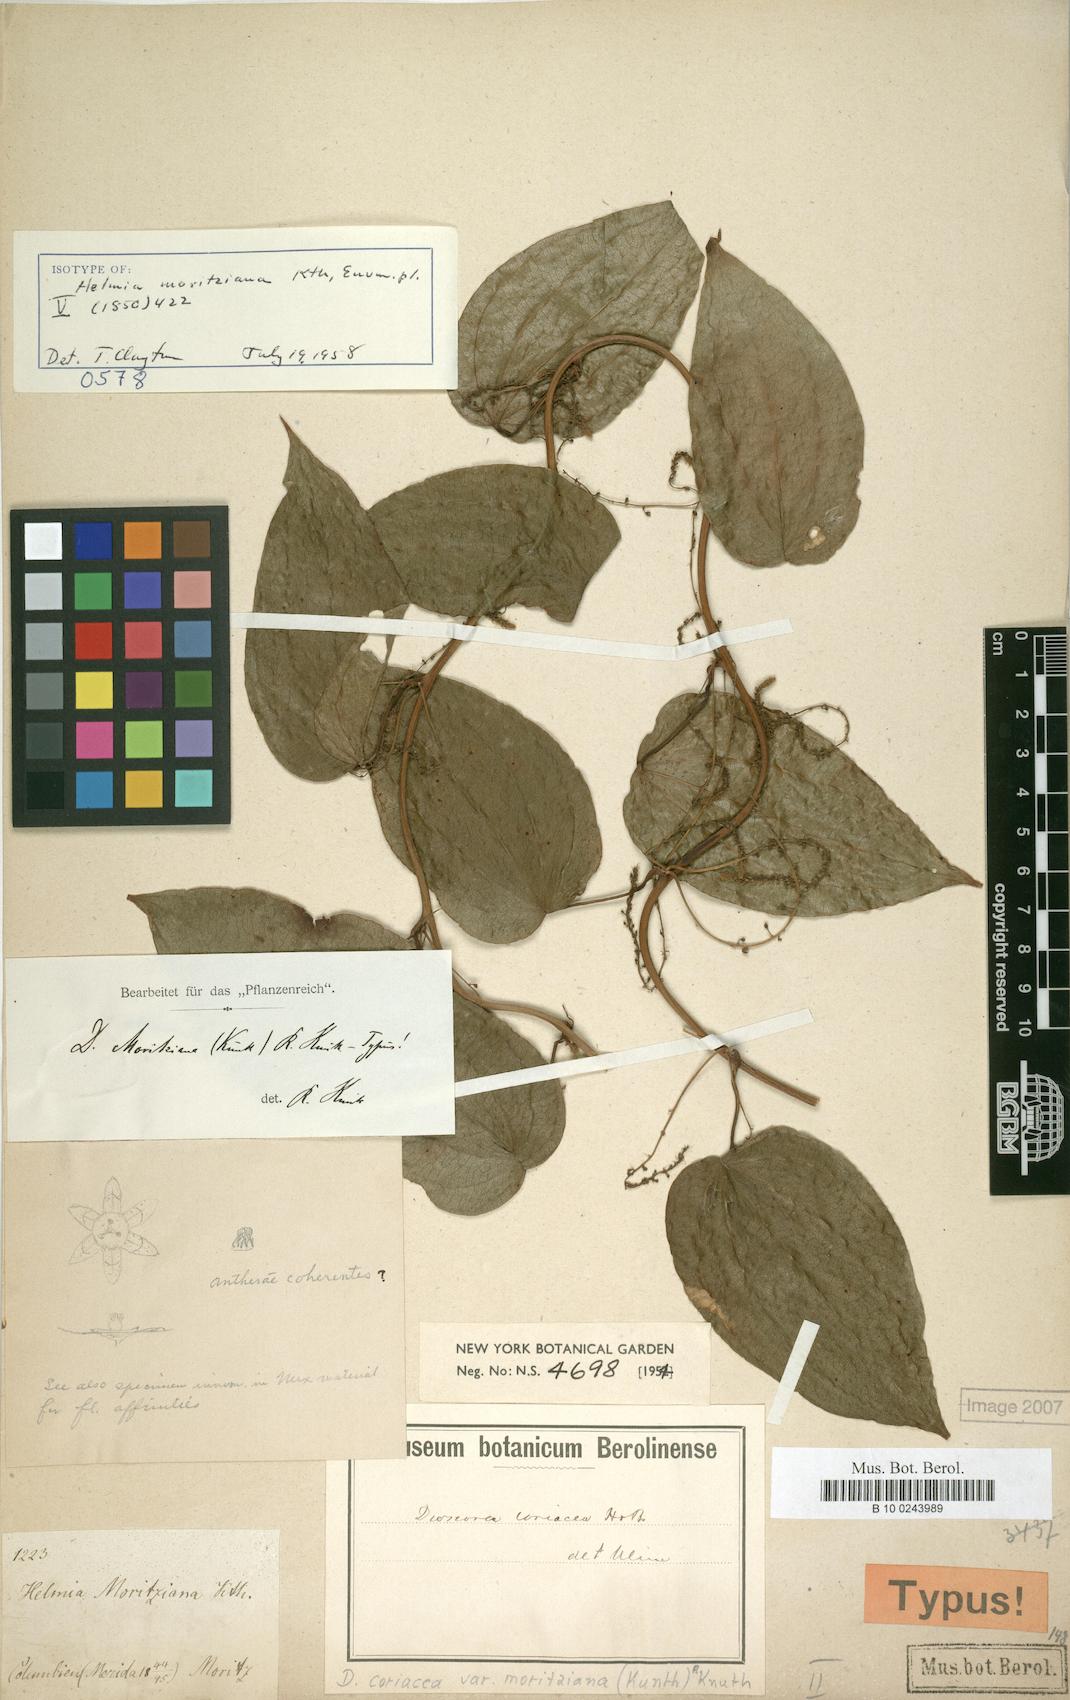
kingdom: Plantae
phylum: Tracheophyta
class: Liliopsida
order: Dioscoreales
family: Dioscoreaceae
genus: Dioscorea
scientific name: Dioscorea coriacea
